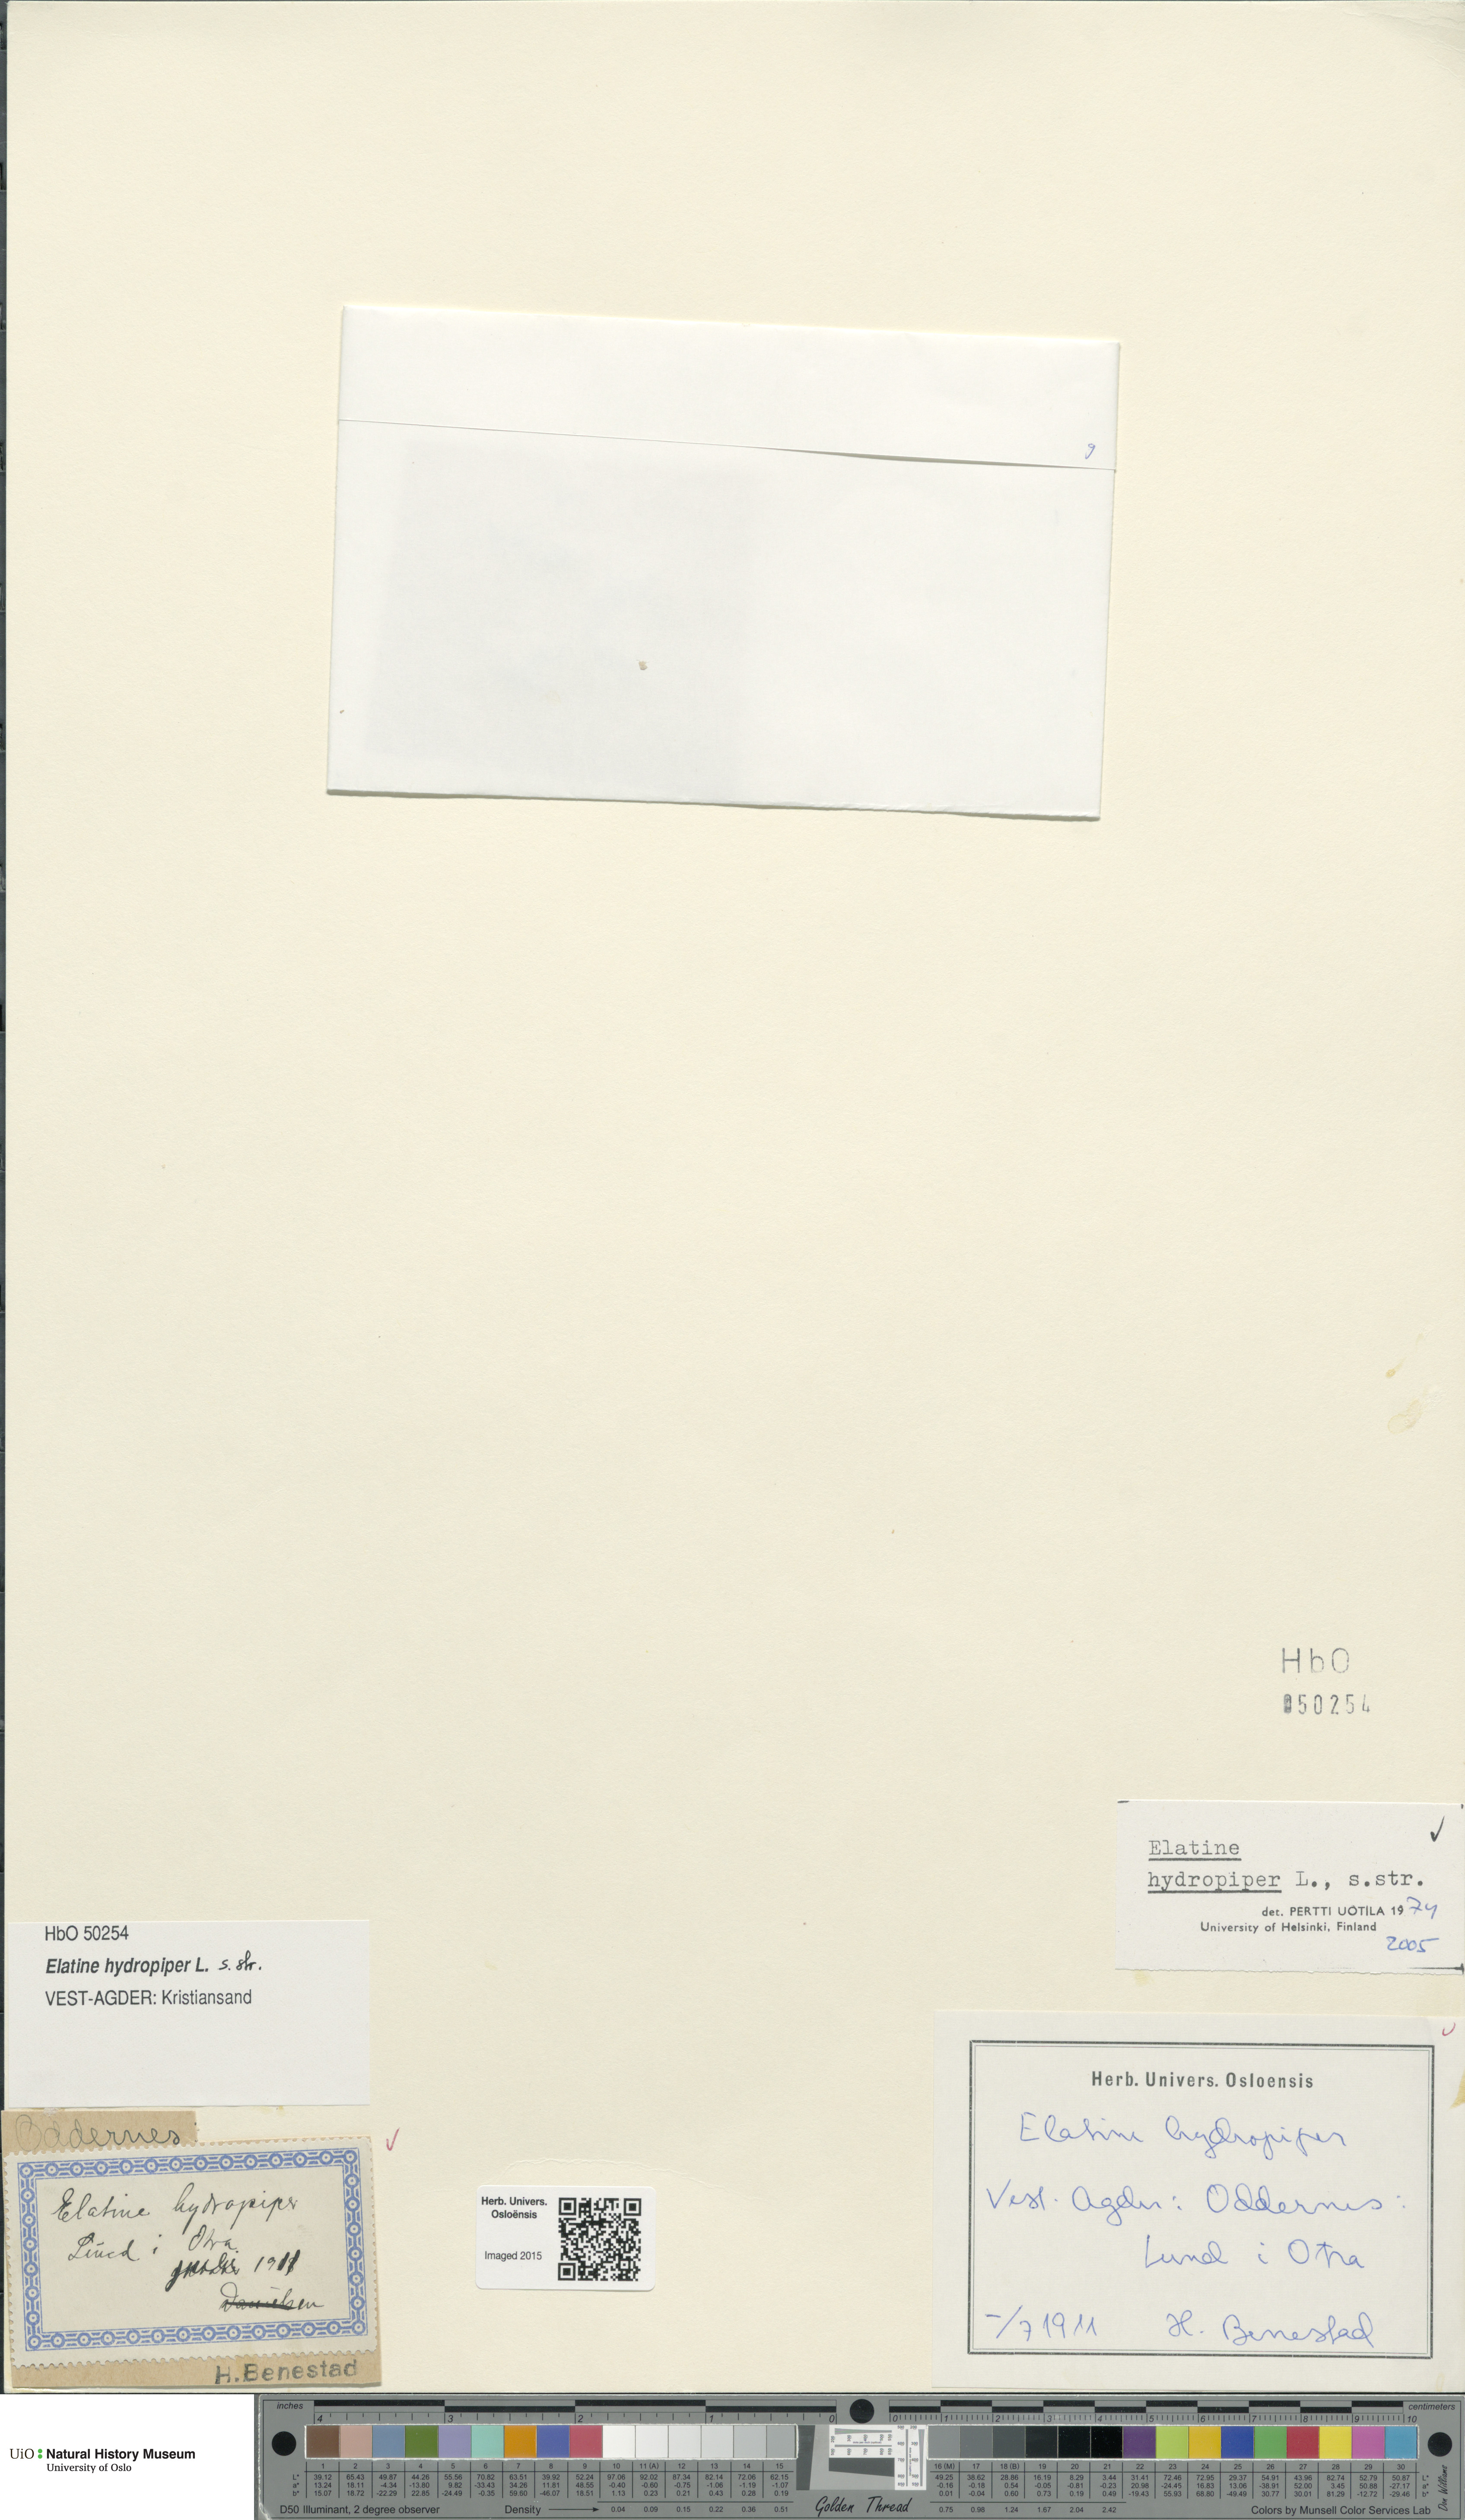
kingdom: Plantae
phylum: Tracheophyta
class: Magnoliopsida
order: Malpighiales
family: Elatinaceae
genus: Elatine
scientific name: Elatine hydropiper
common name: Eight-stamened waterwort
